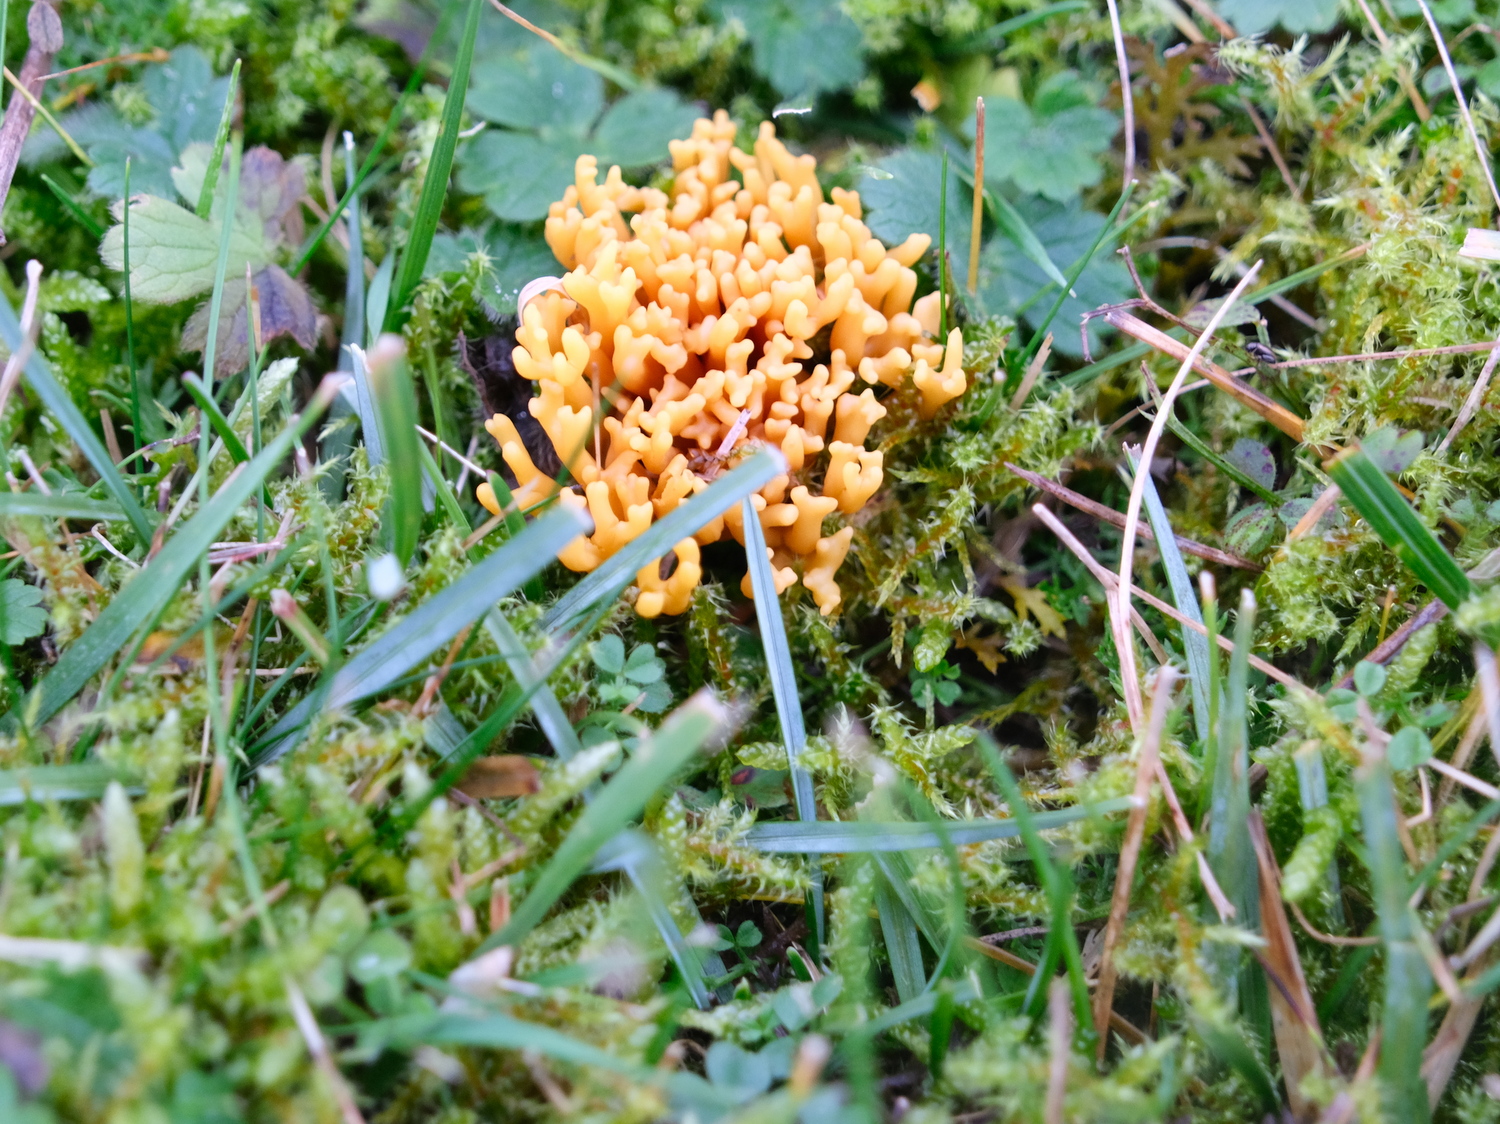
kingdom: Fungi
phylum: Basidiomycota
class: Agaricomycetes
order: Agaricales
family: Clavariaceae
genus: Clavulinopsis
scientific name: Clavulinopsis corniculata
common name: eng-køllesvamp
